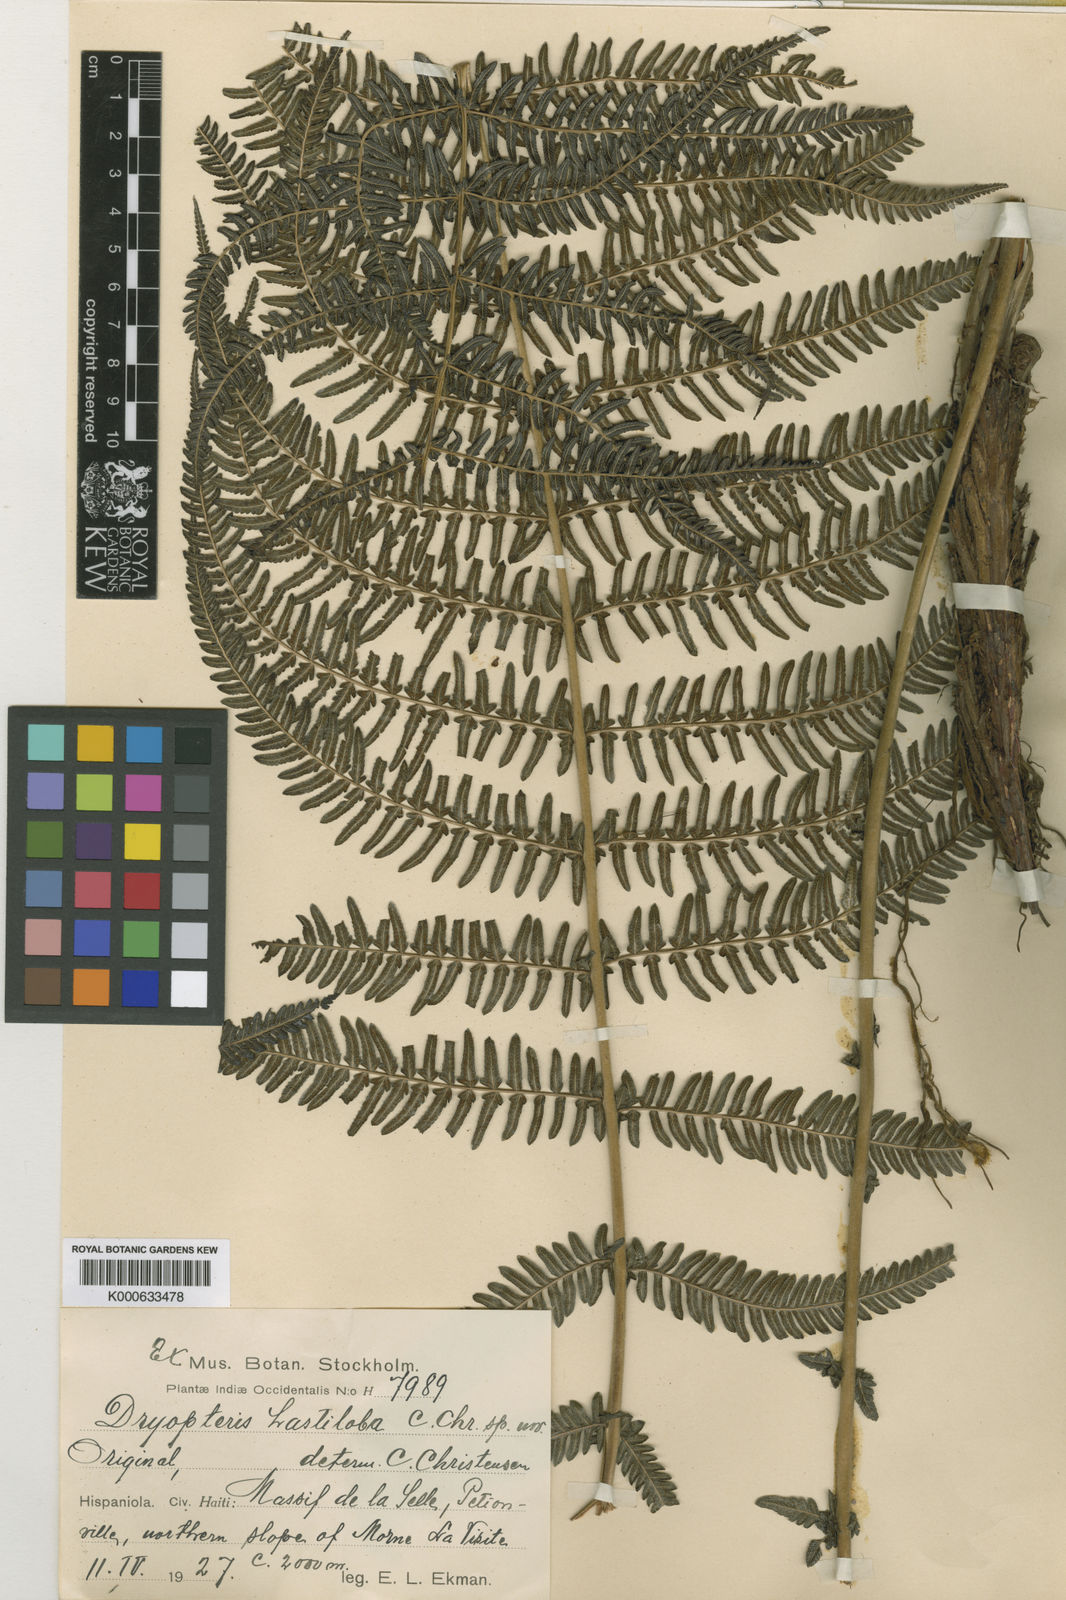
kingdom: Plantae
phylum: Tracheophyta
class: Polypodiopsida
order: Polypodiales
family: Thelypteridaceae
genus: Amauropelta
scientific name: Amauropelta hastiloba
